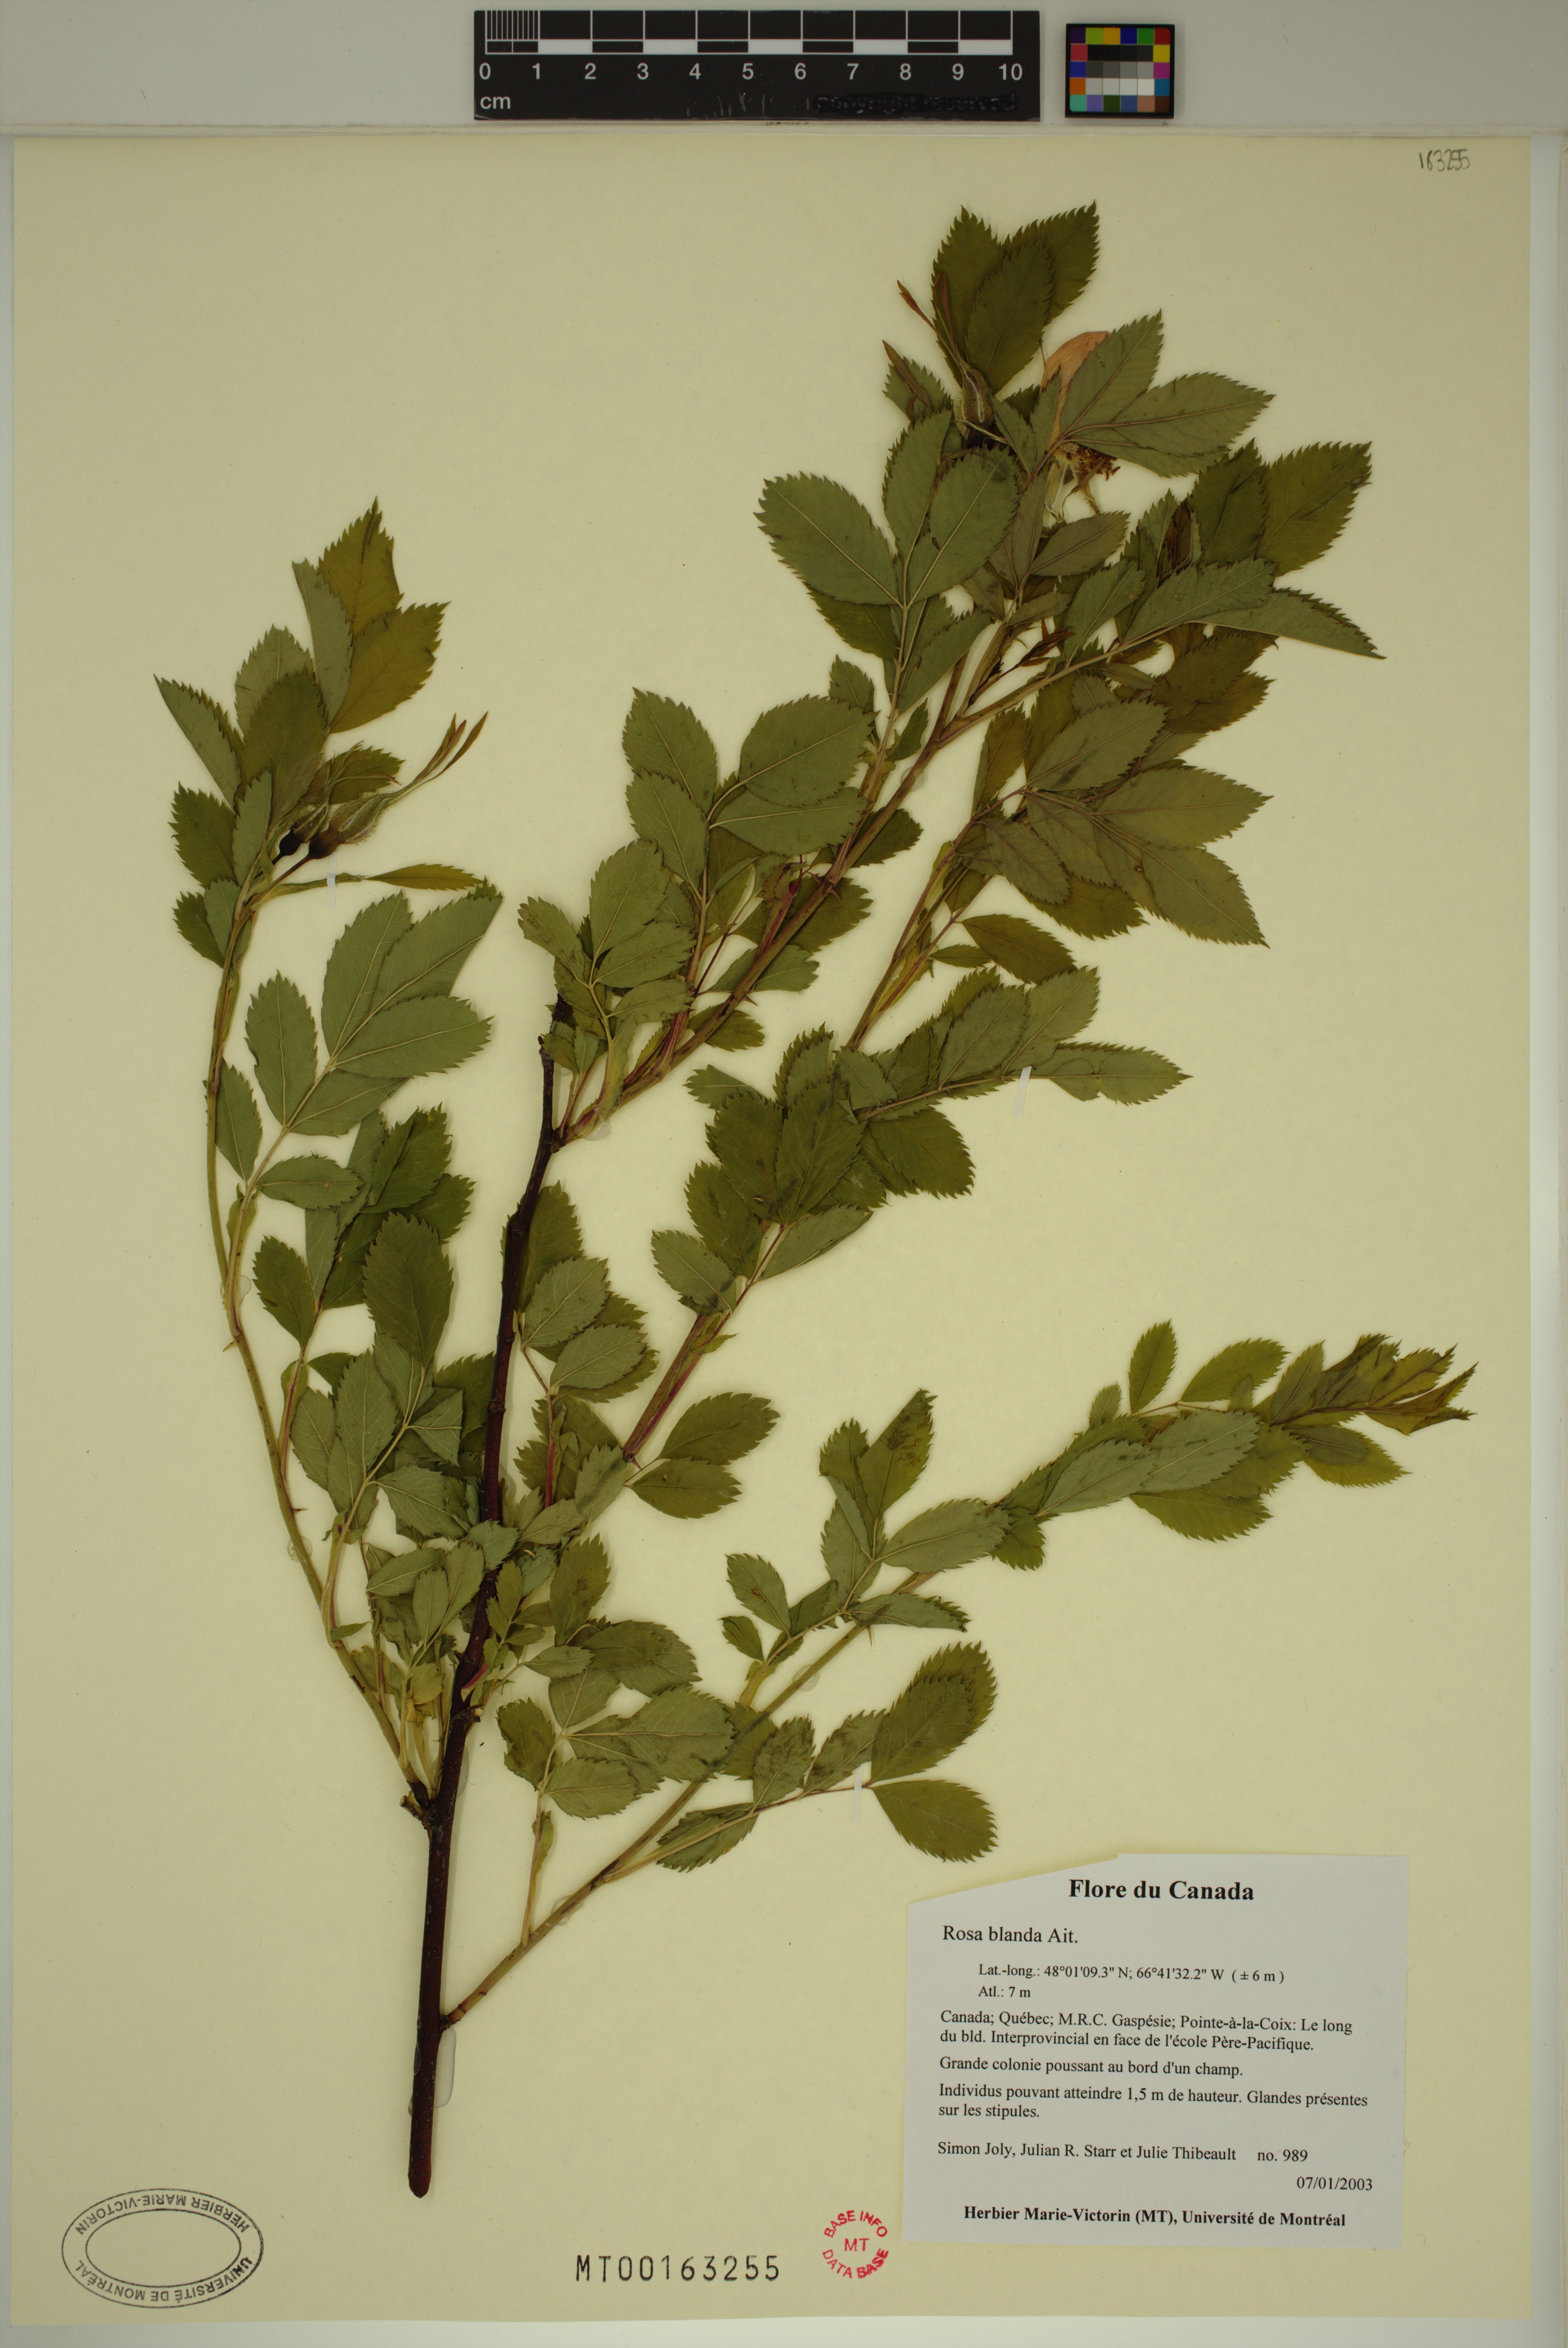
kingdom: Plantae
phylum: Tracheophyta
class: Magnoliopsida
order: Rosales
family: Rosaceae
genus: Rosa
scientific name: Rosa blanda
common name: Smooth rose
